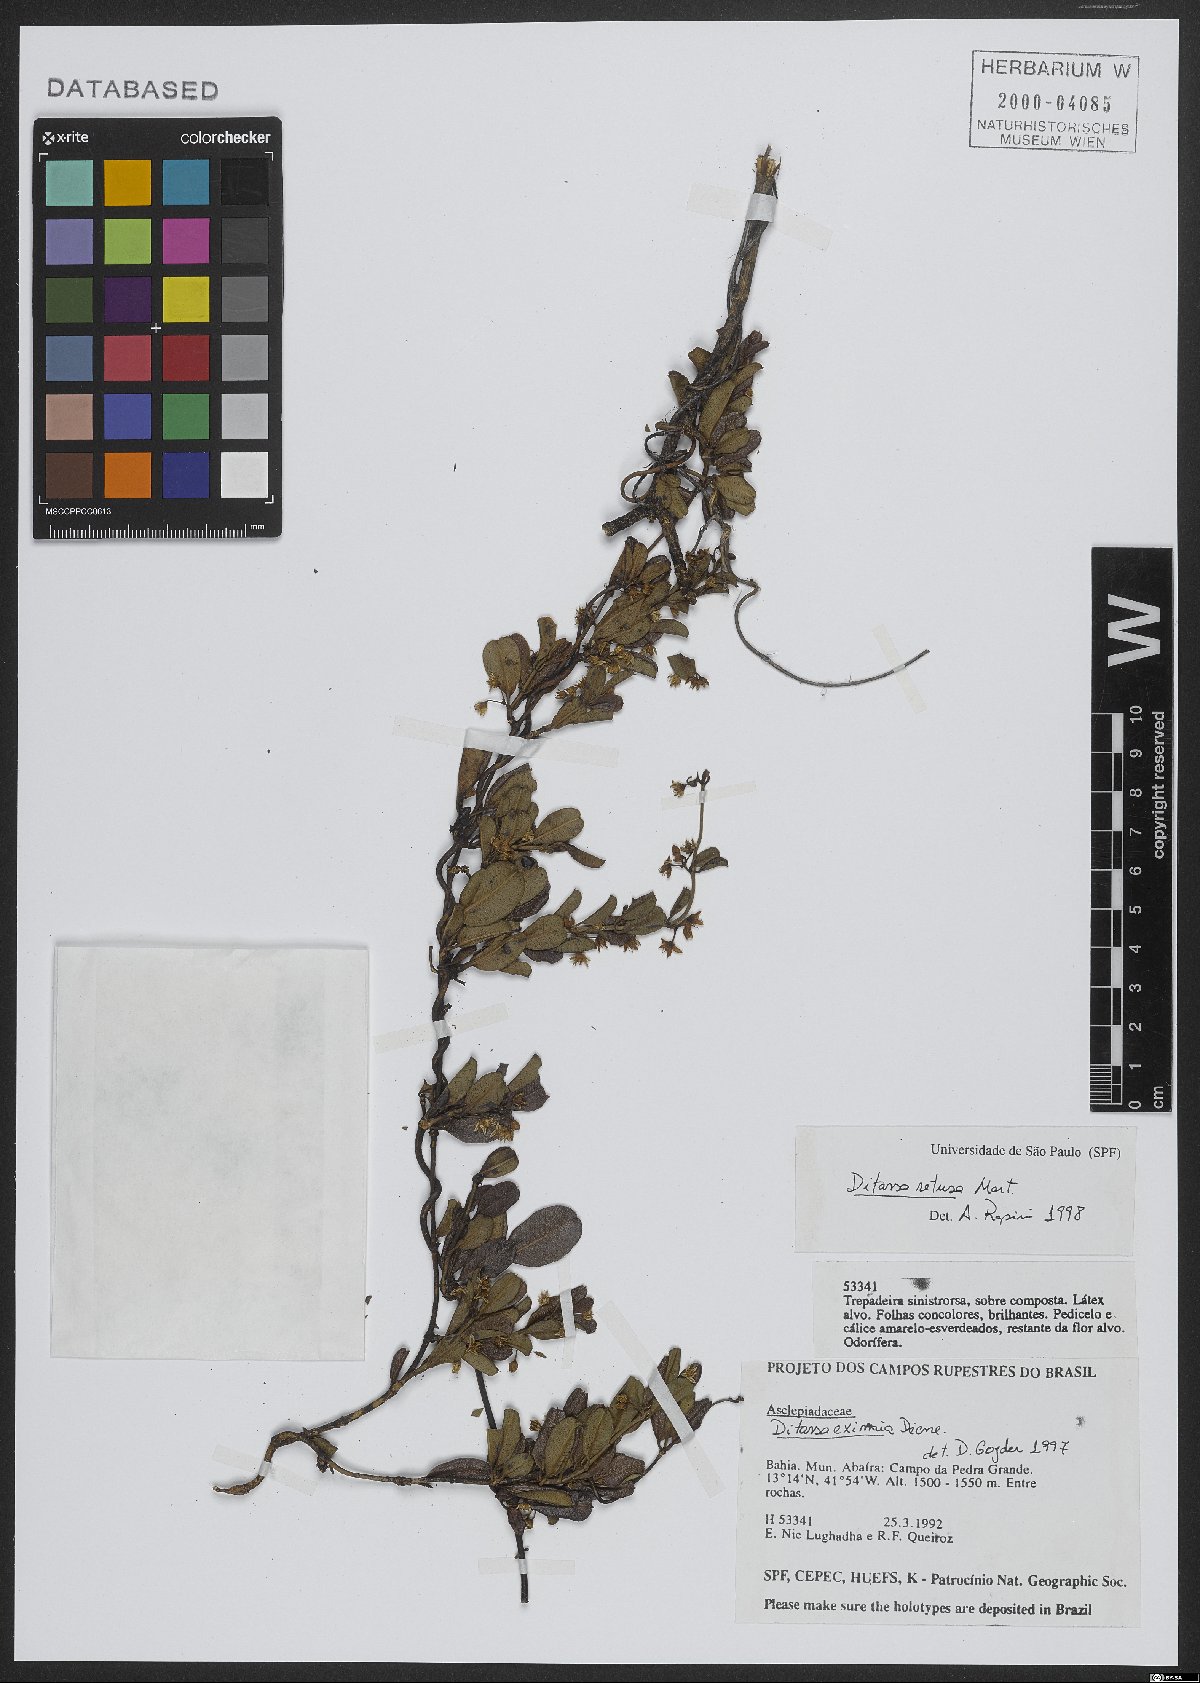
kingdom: Plantae
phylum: Tracheophyta
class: Magnoliopsida
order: Gentianales
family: Apocynaceae
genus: Ditassa
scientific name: Ditassa retusa
